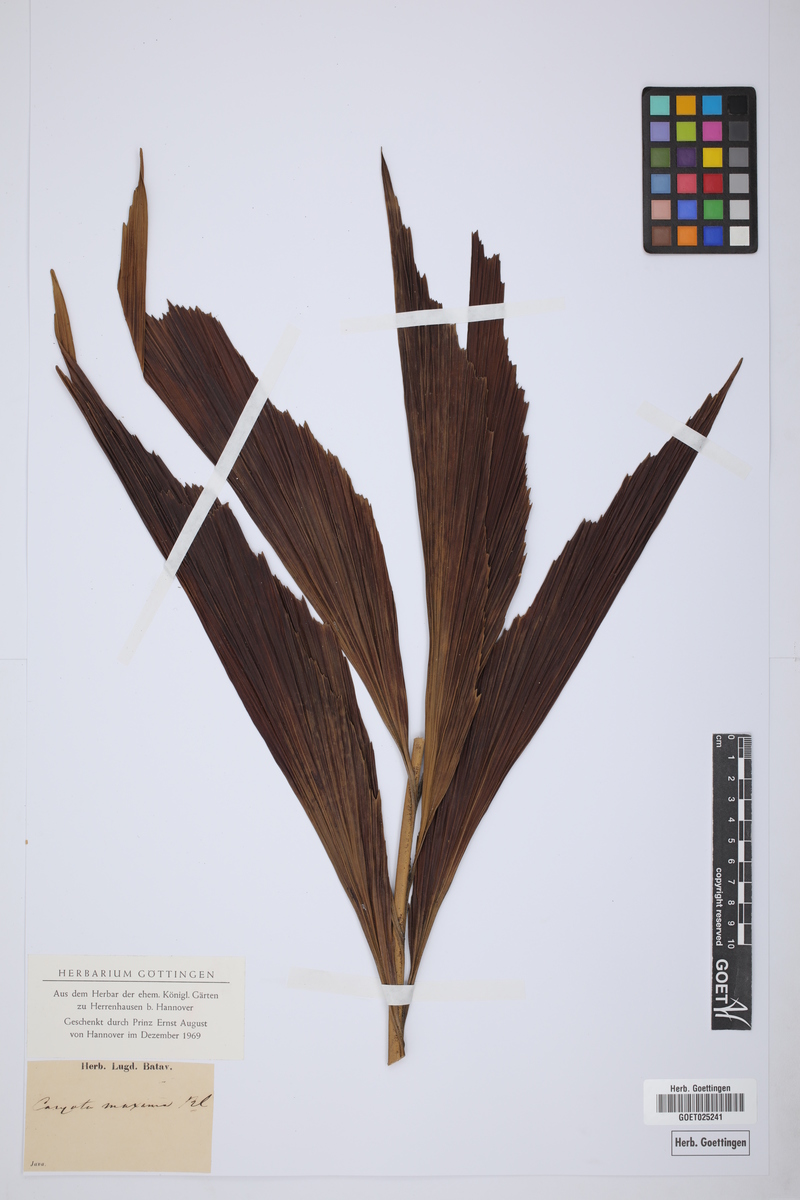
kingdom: Plantae
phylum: Tracheophyta
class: Liliopsida
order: Arecales
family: Arecaceae
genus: Caryota
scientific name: Caryota maxima
